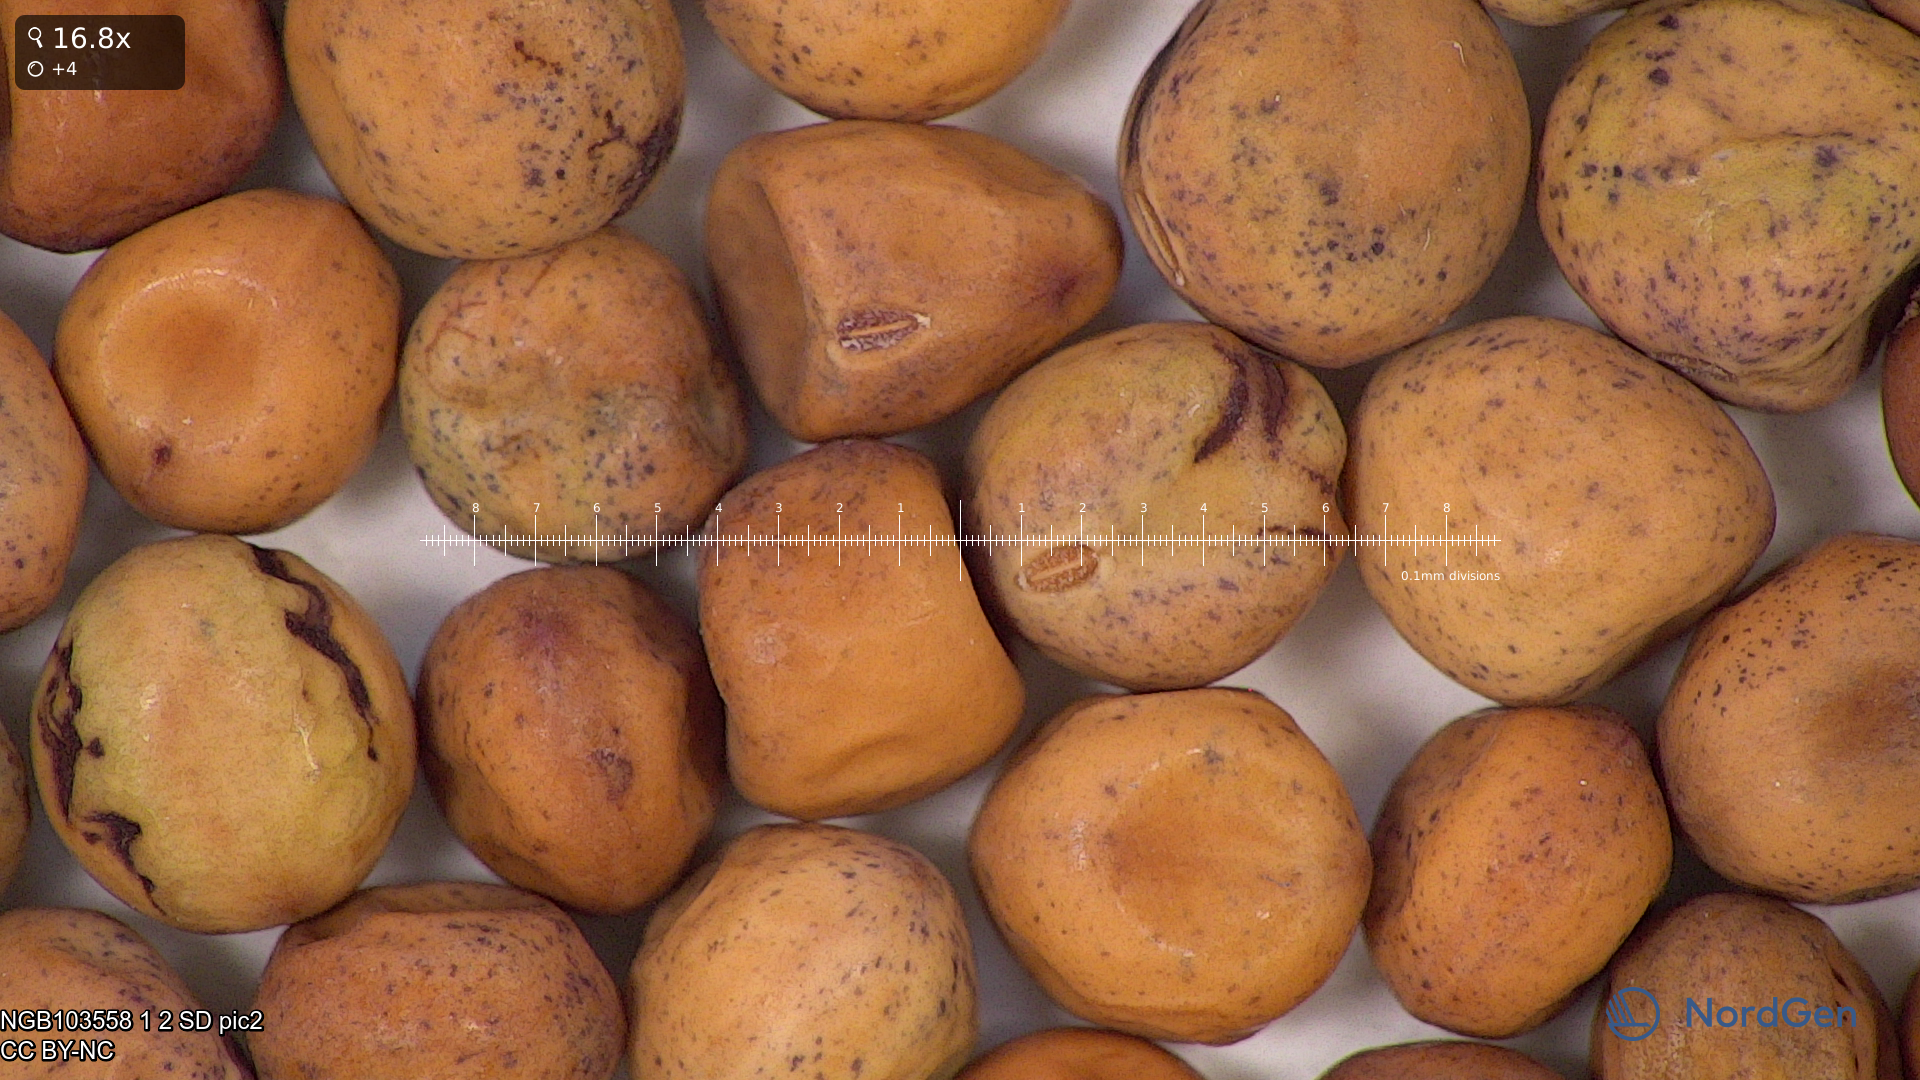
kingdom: Plantae
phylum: Tracheophyta
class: Magnoliopsida
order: Fabales
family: Fabaceae
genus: Lathyrus
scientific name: Lathyrus oleraceus
